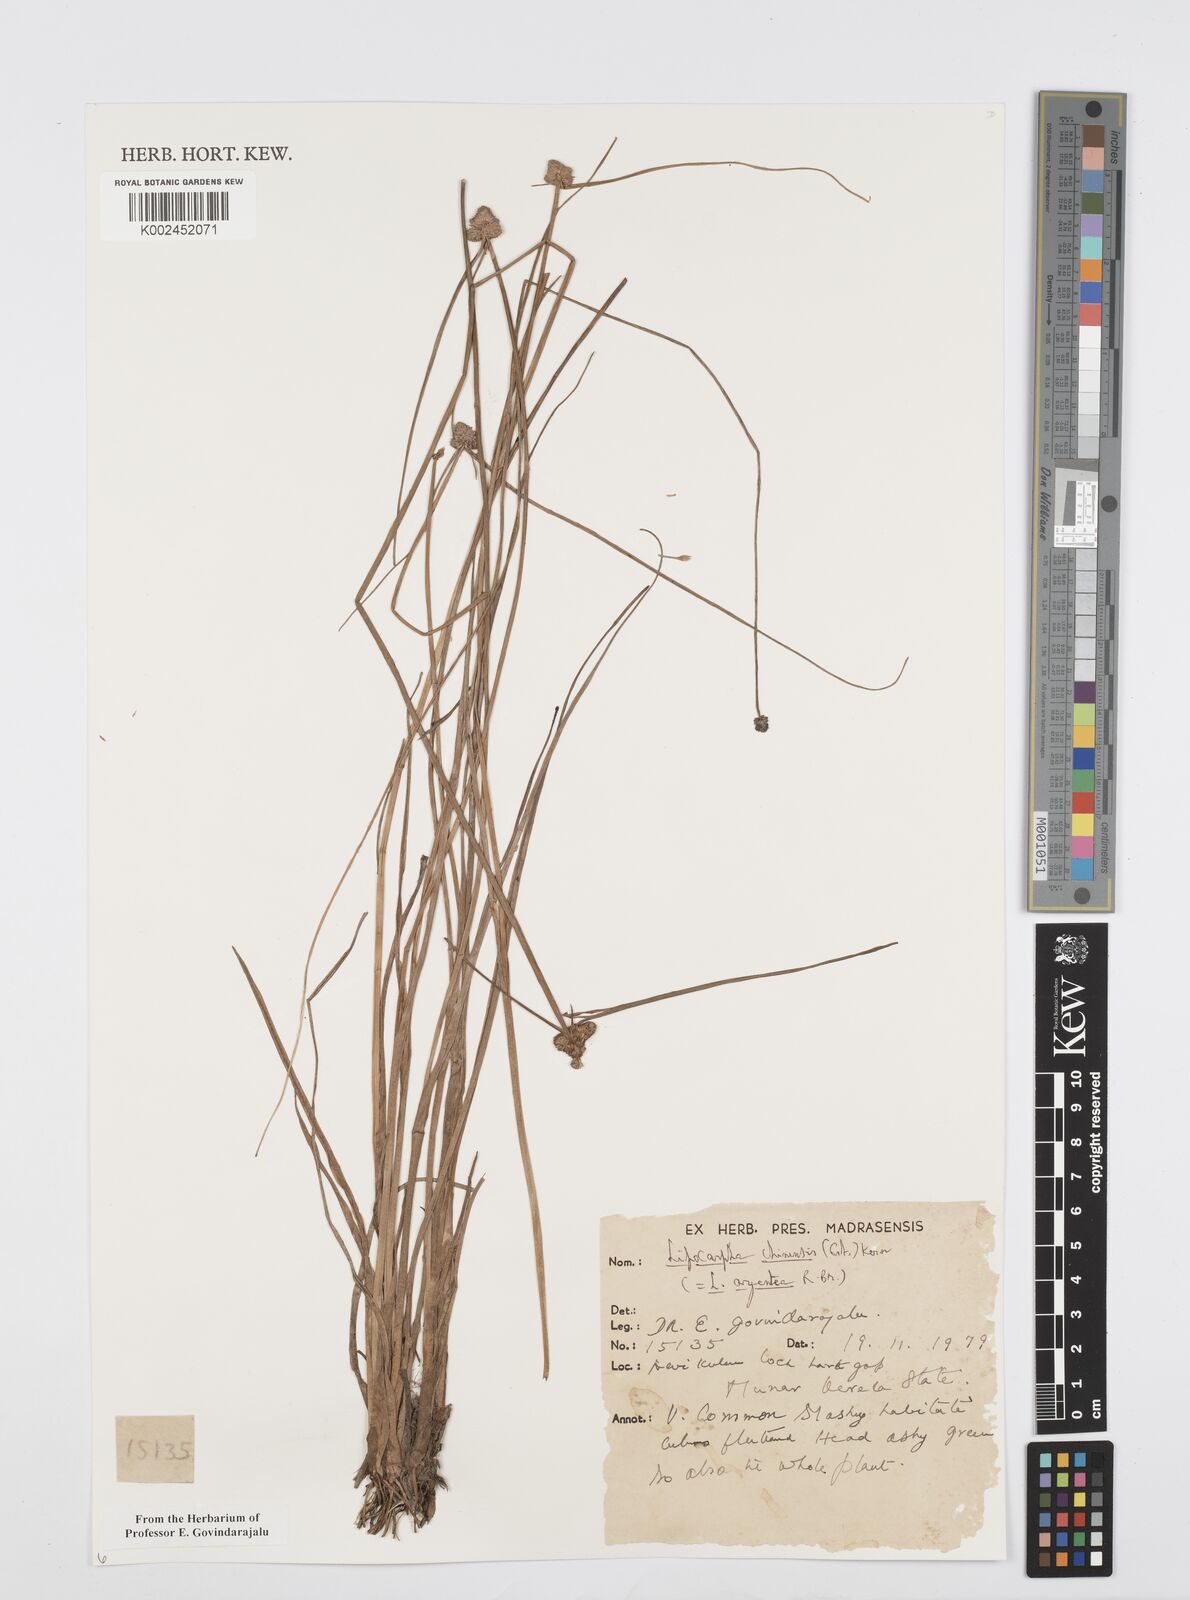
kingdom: Plantae
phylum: Tracheophyta
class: Liliopsida
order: Poales
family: Cyperaceae
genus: Cyperus
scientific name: Cyperus
